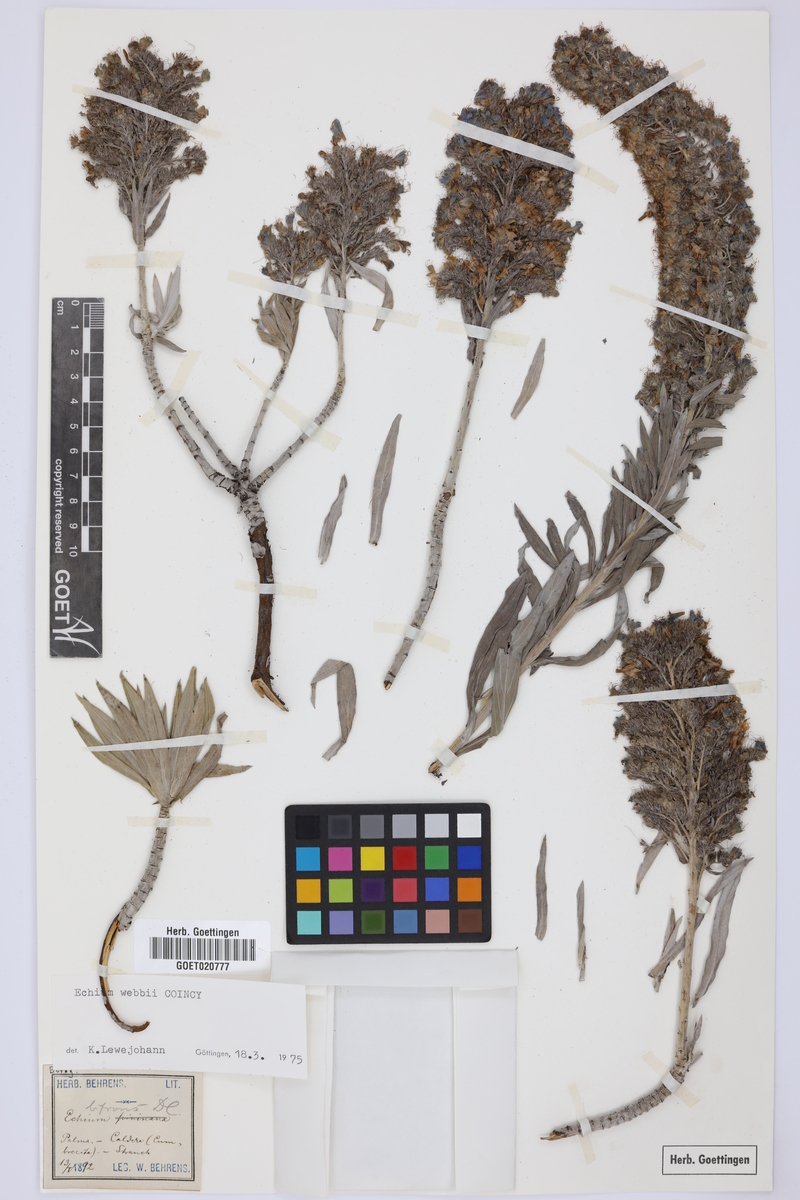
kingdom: Plantae
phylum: Tracheophyta
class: Magnoliopsida
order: Boraginales
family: Boraginaceae
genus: Echium
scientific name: Echium webbii
